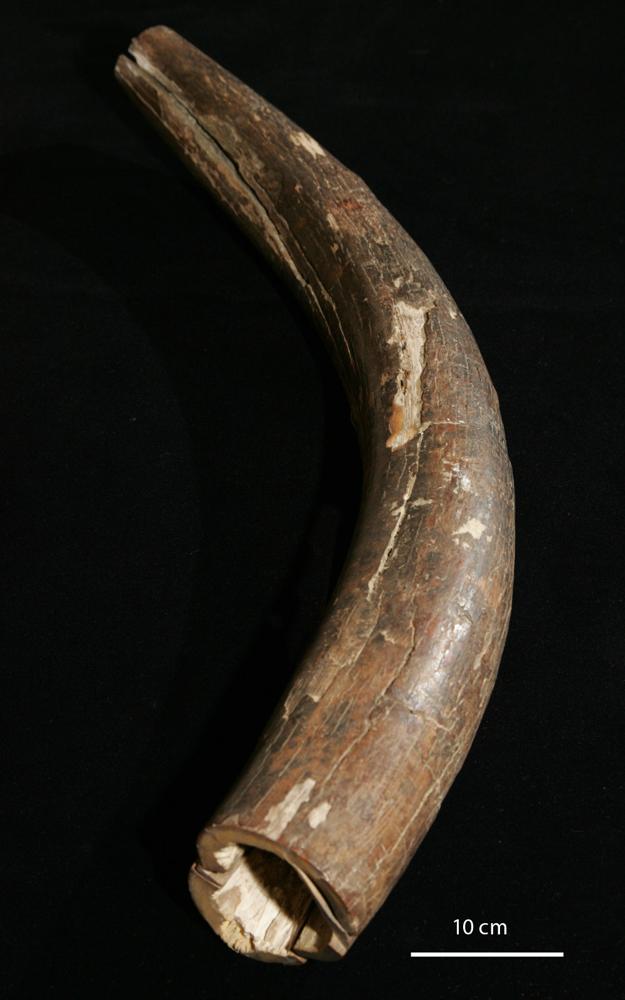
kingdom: Animalia
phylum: Chordata
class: Mammalia
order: Proboscidea
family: Elephantidae
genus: Mammuthus
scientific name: Mammuthus primigenius
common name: Wooly mammoth
